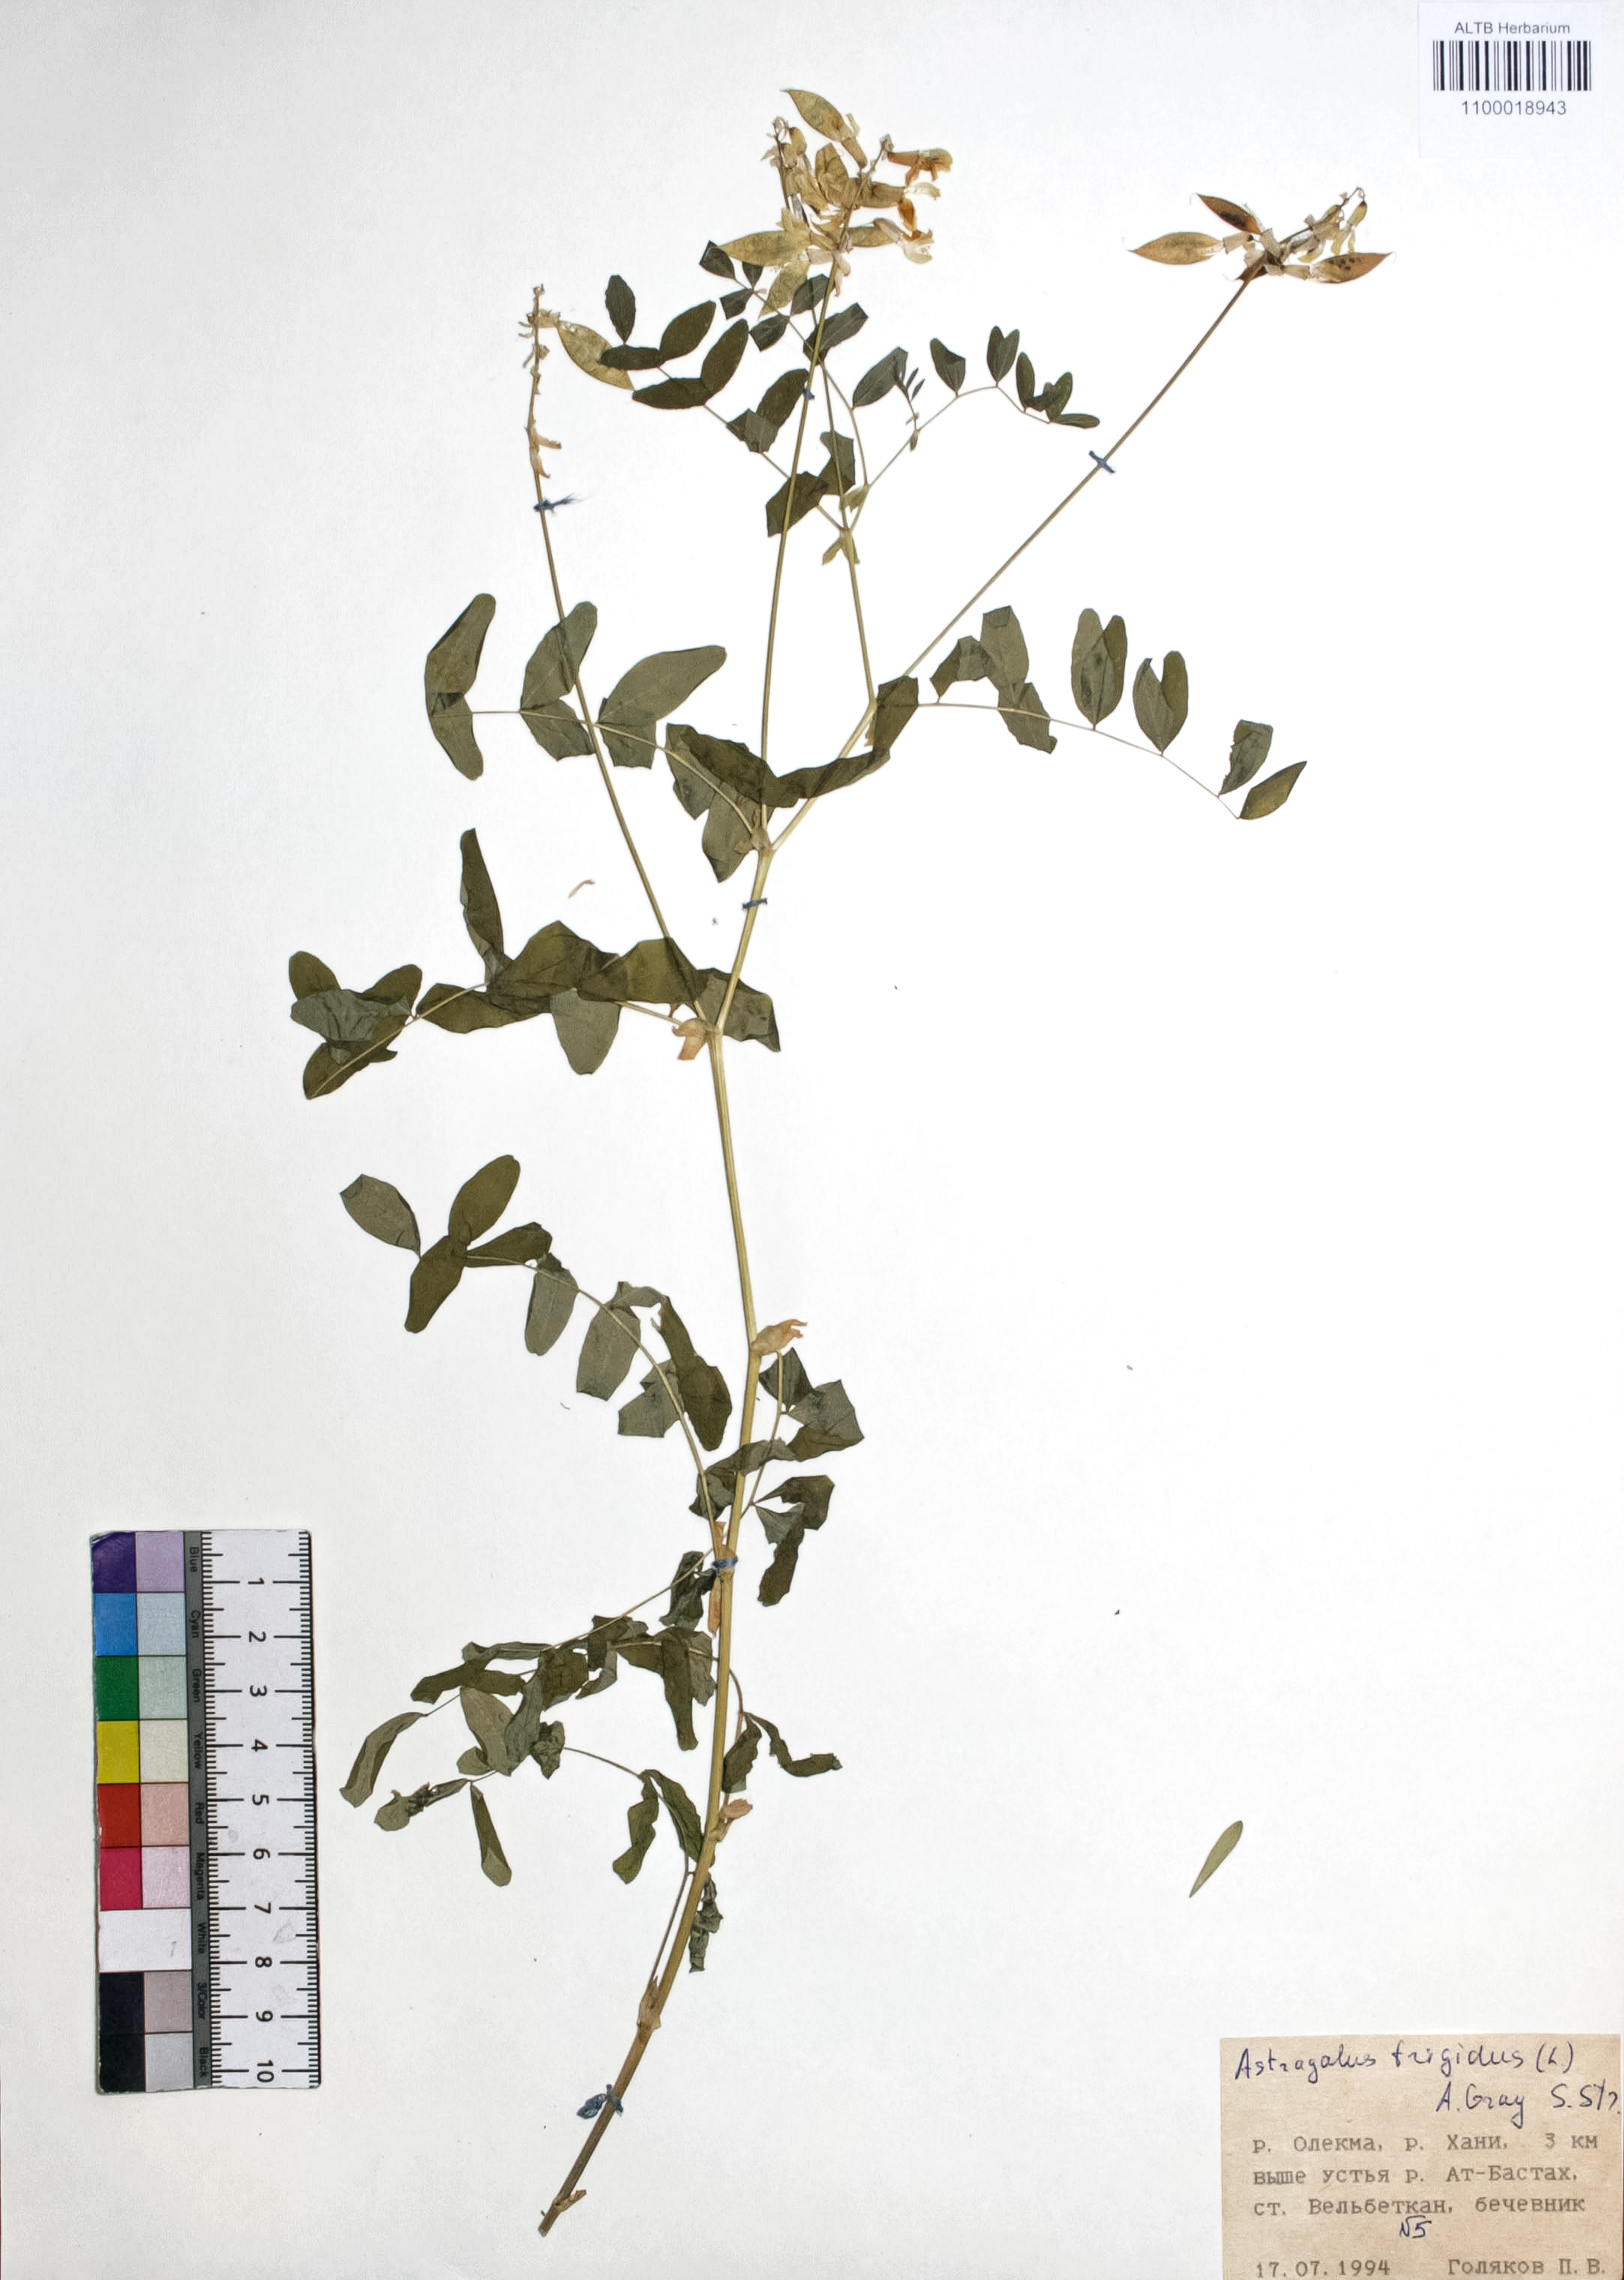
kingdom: Plantae
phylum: Tracheophyta
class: Magnoliopsida
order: Fabales
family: Fabaceae
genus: Astragalus
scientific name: Astragalus frigidus
